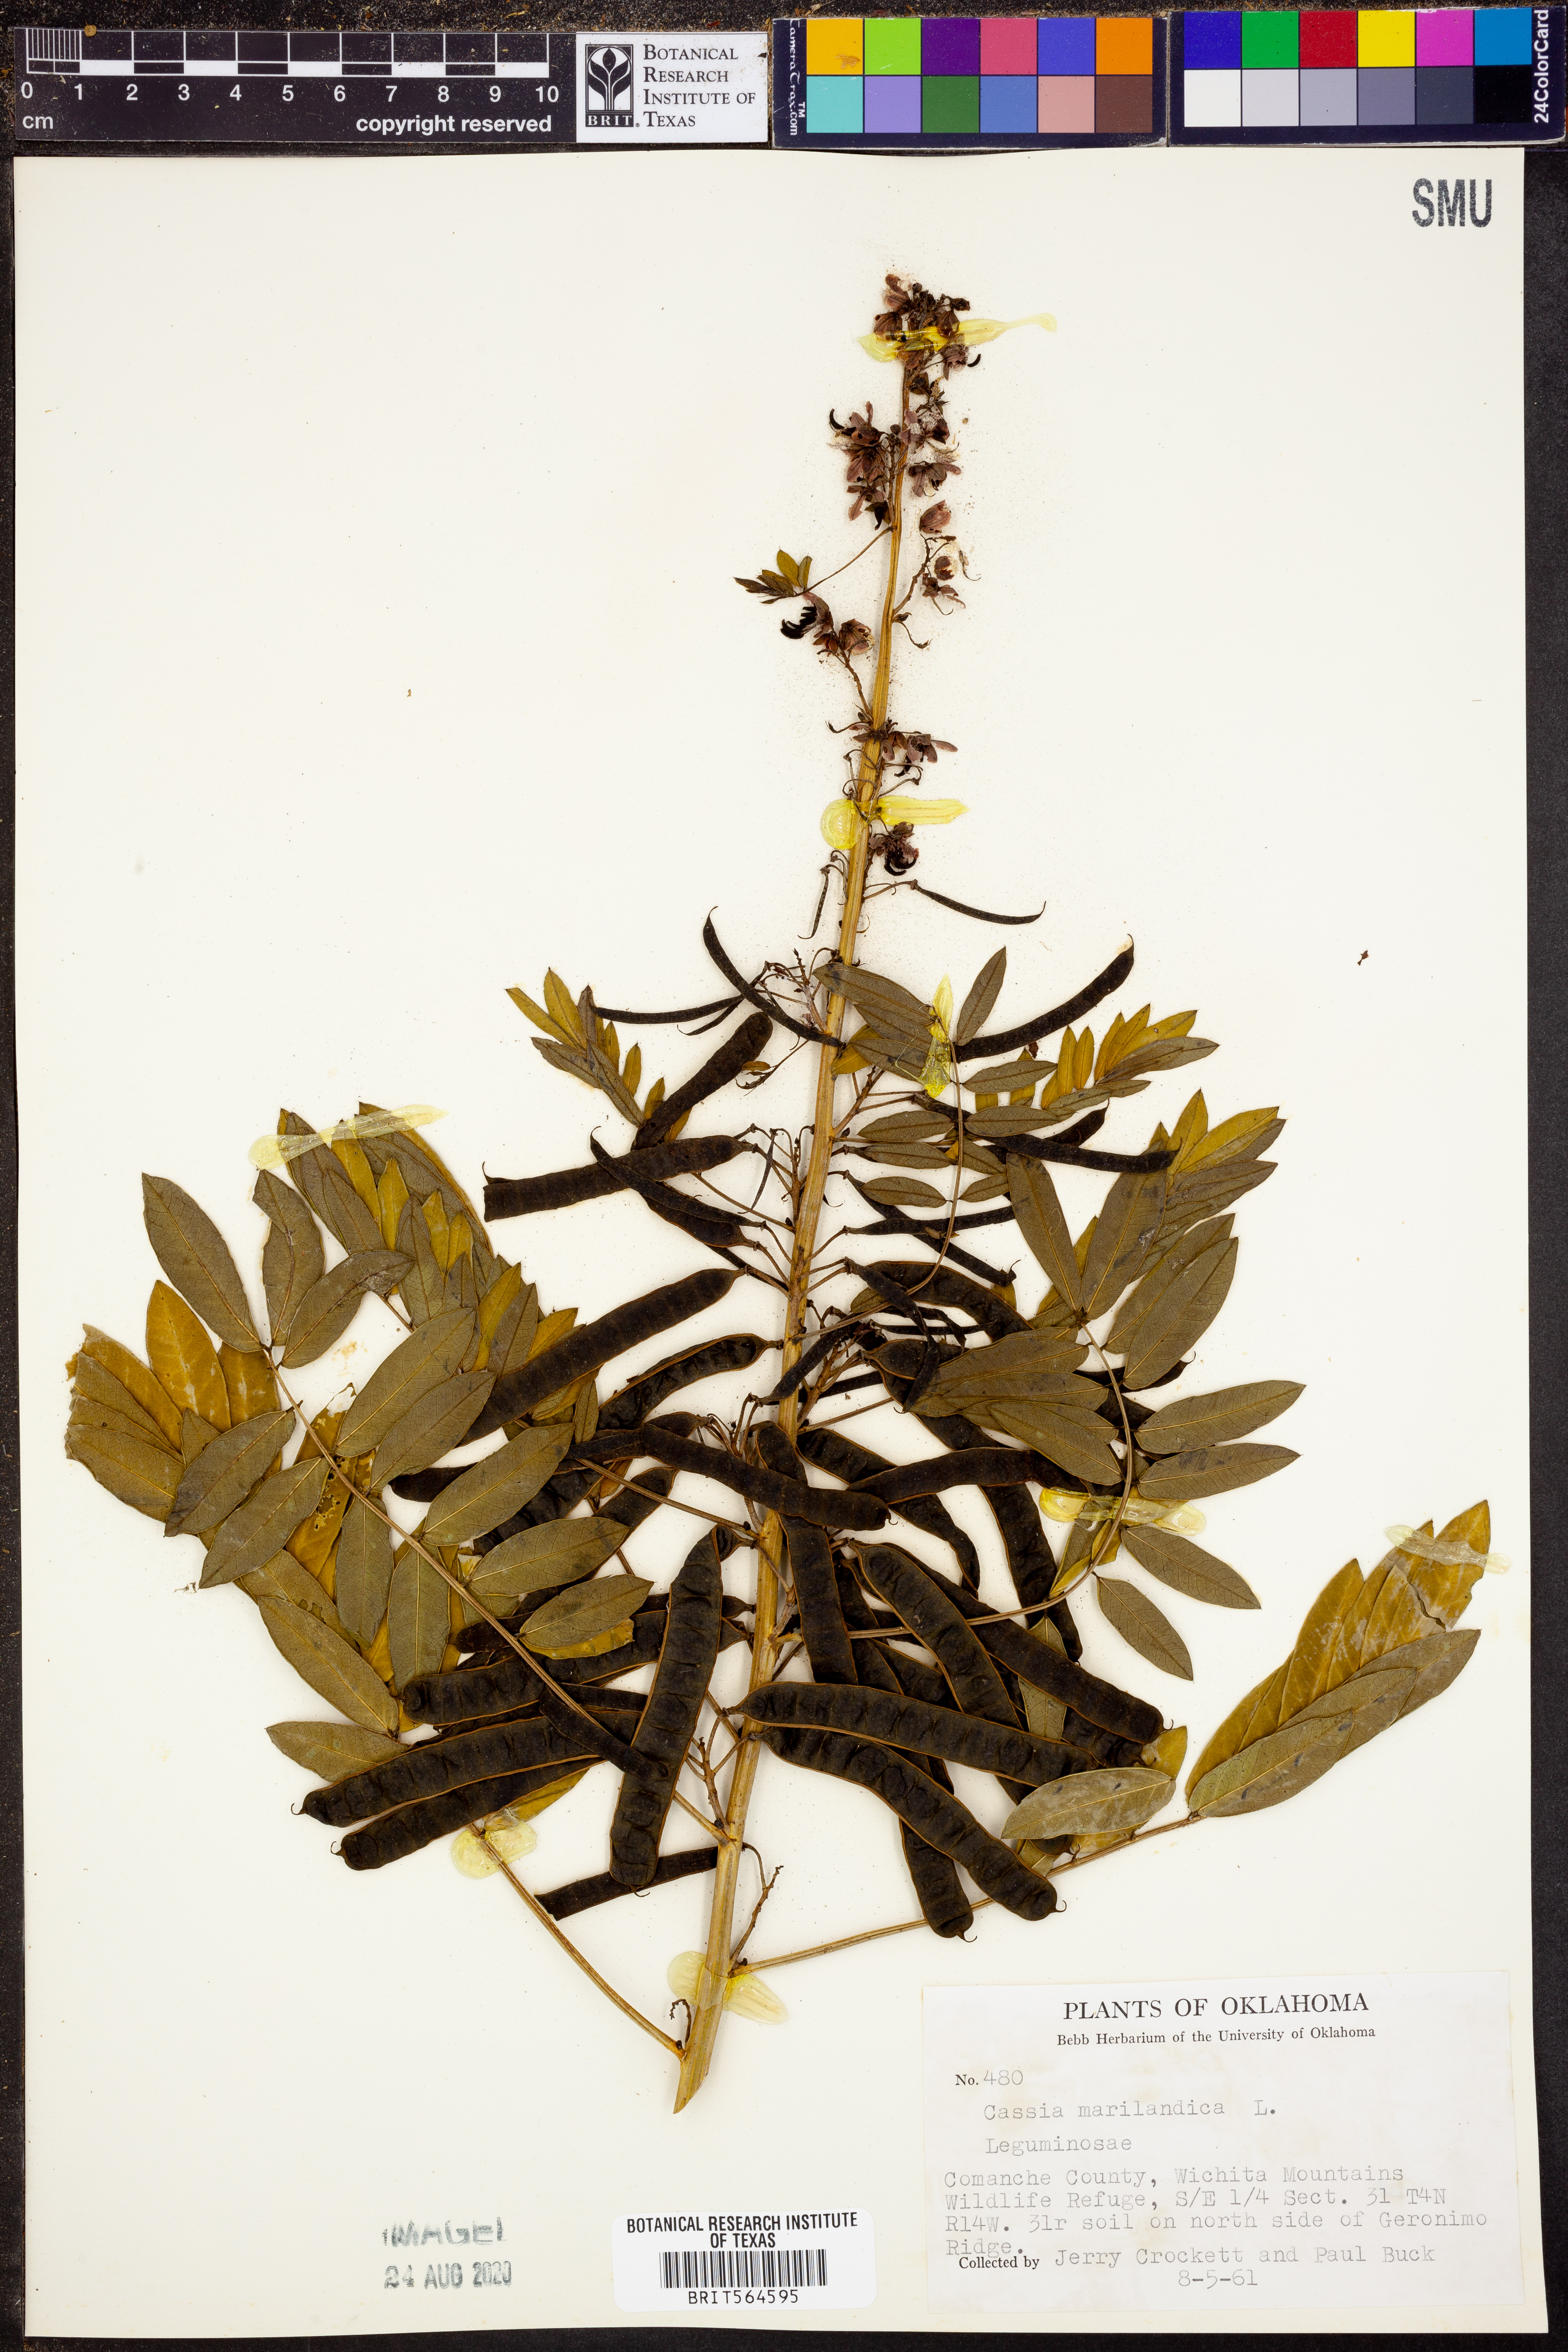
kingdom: Plantae
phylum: Tracheophyta
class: Magnoliopsida
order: Fabales
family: Fabaceae
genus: Senna
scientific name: Senna marilandica
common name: American senna
